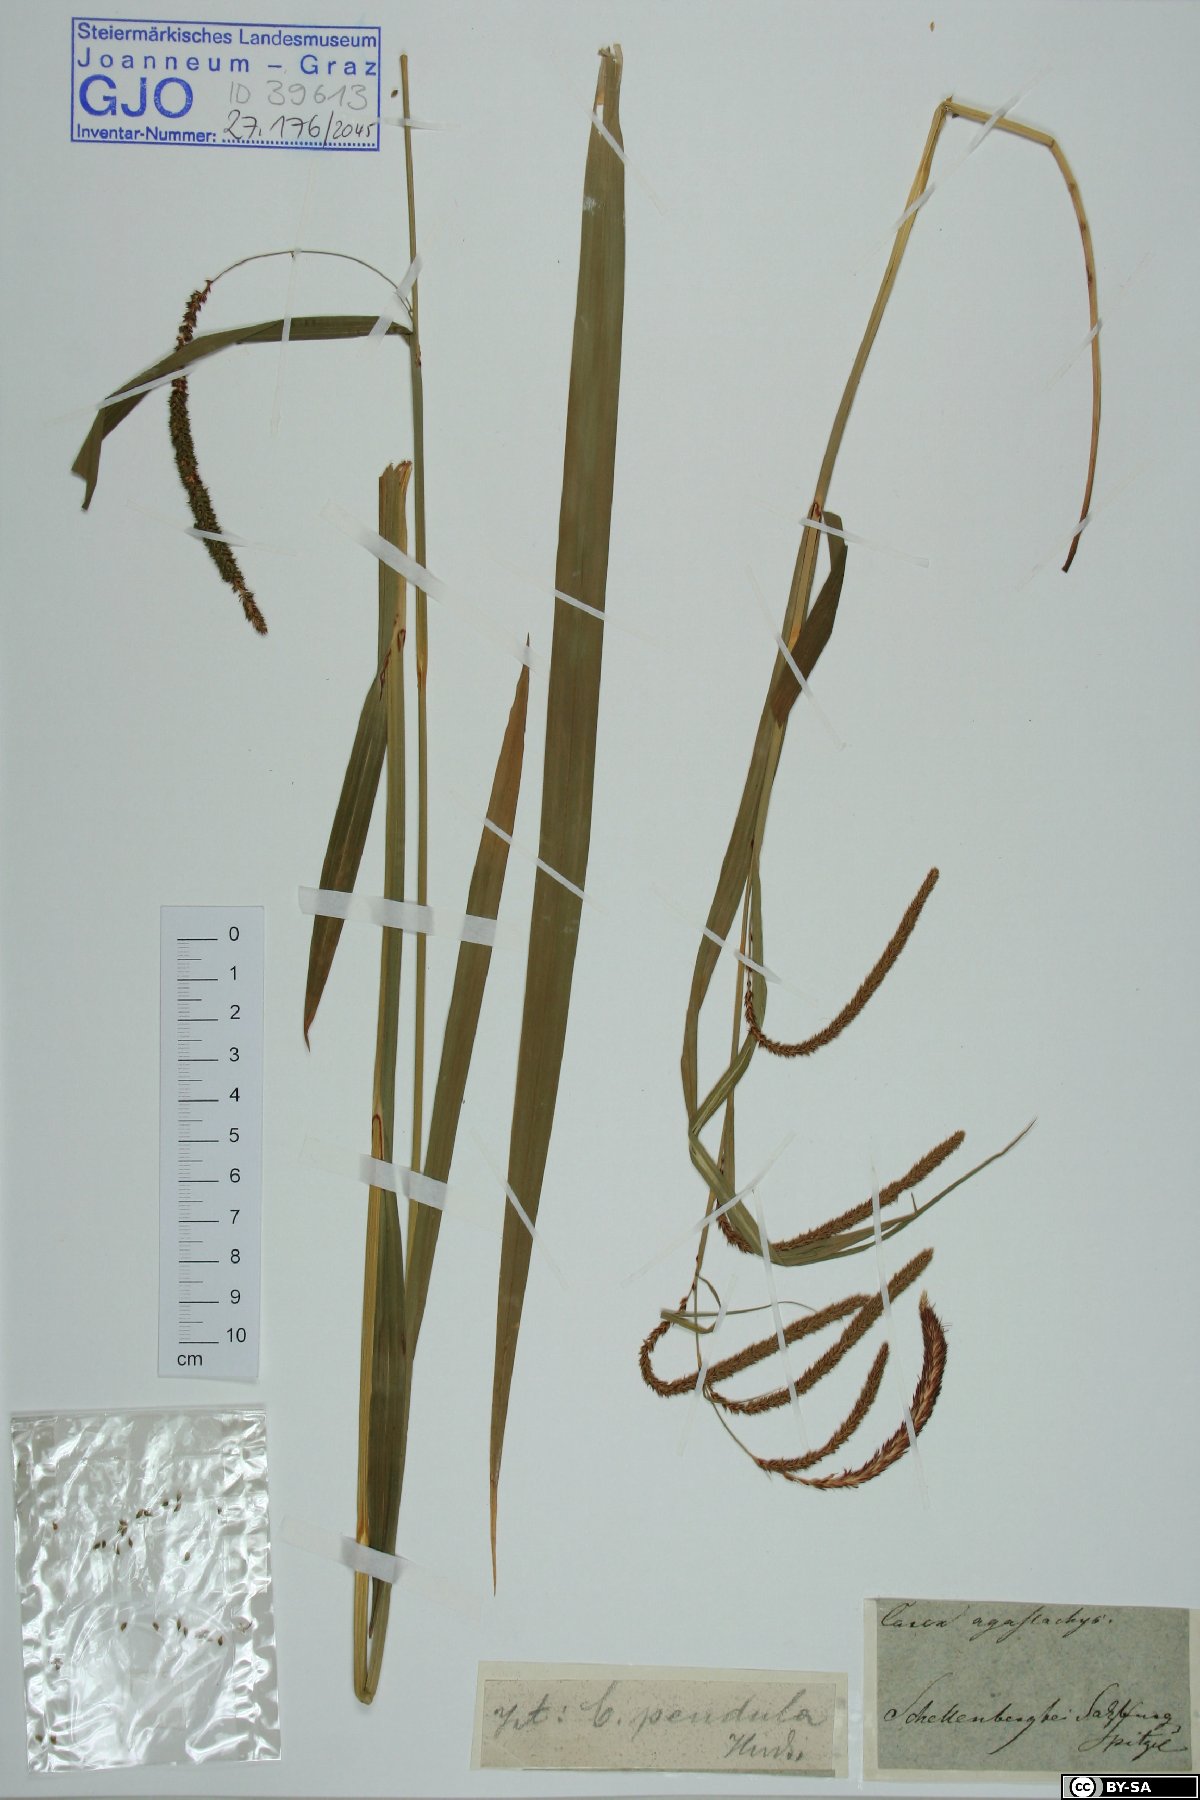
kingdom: Plantae
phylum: Tracheophyta
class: Liliopsida
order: Poales
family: Cyperaceae
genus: Carex
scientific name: Carex agastachys
